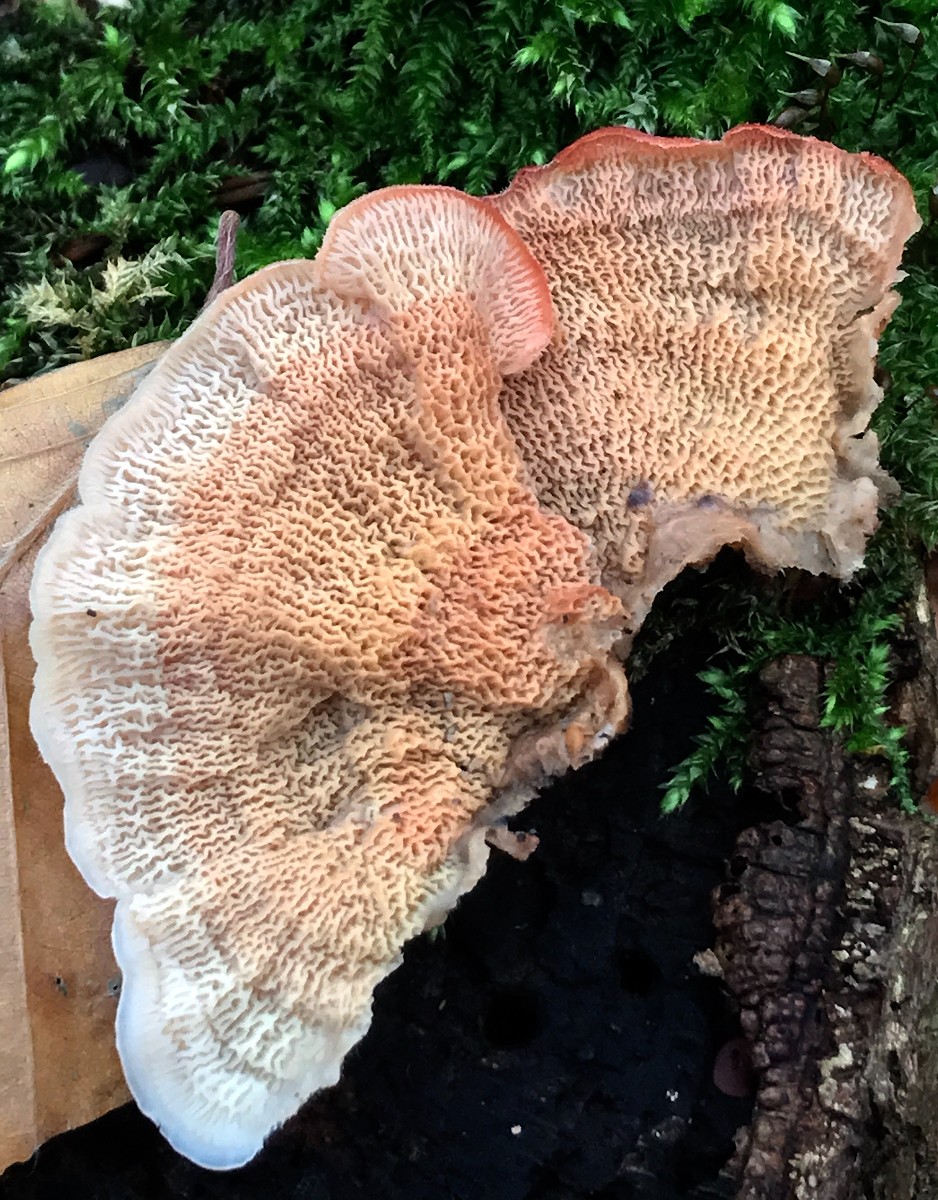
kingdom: Fungi
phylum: Basidiomycota
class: Agaricomycetes
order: Polyporales
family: Meruliaceae
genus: Phlebia
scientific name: Phlebia tremellosa
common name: bævrende åresvamp
